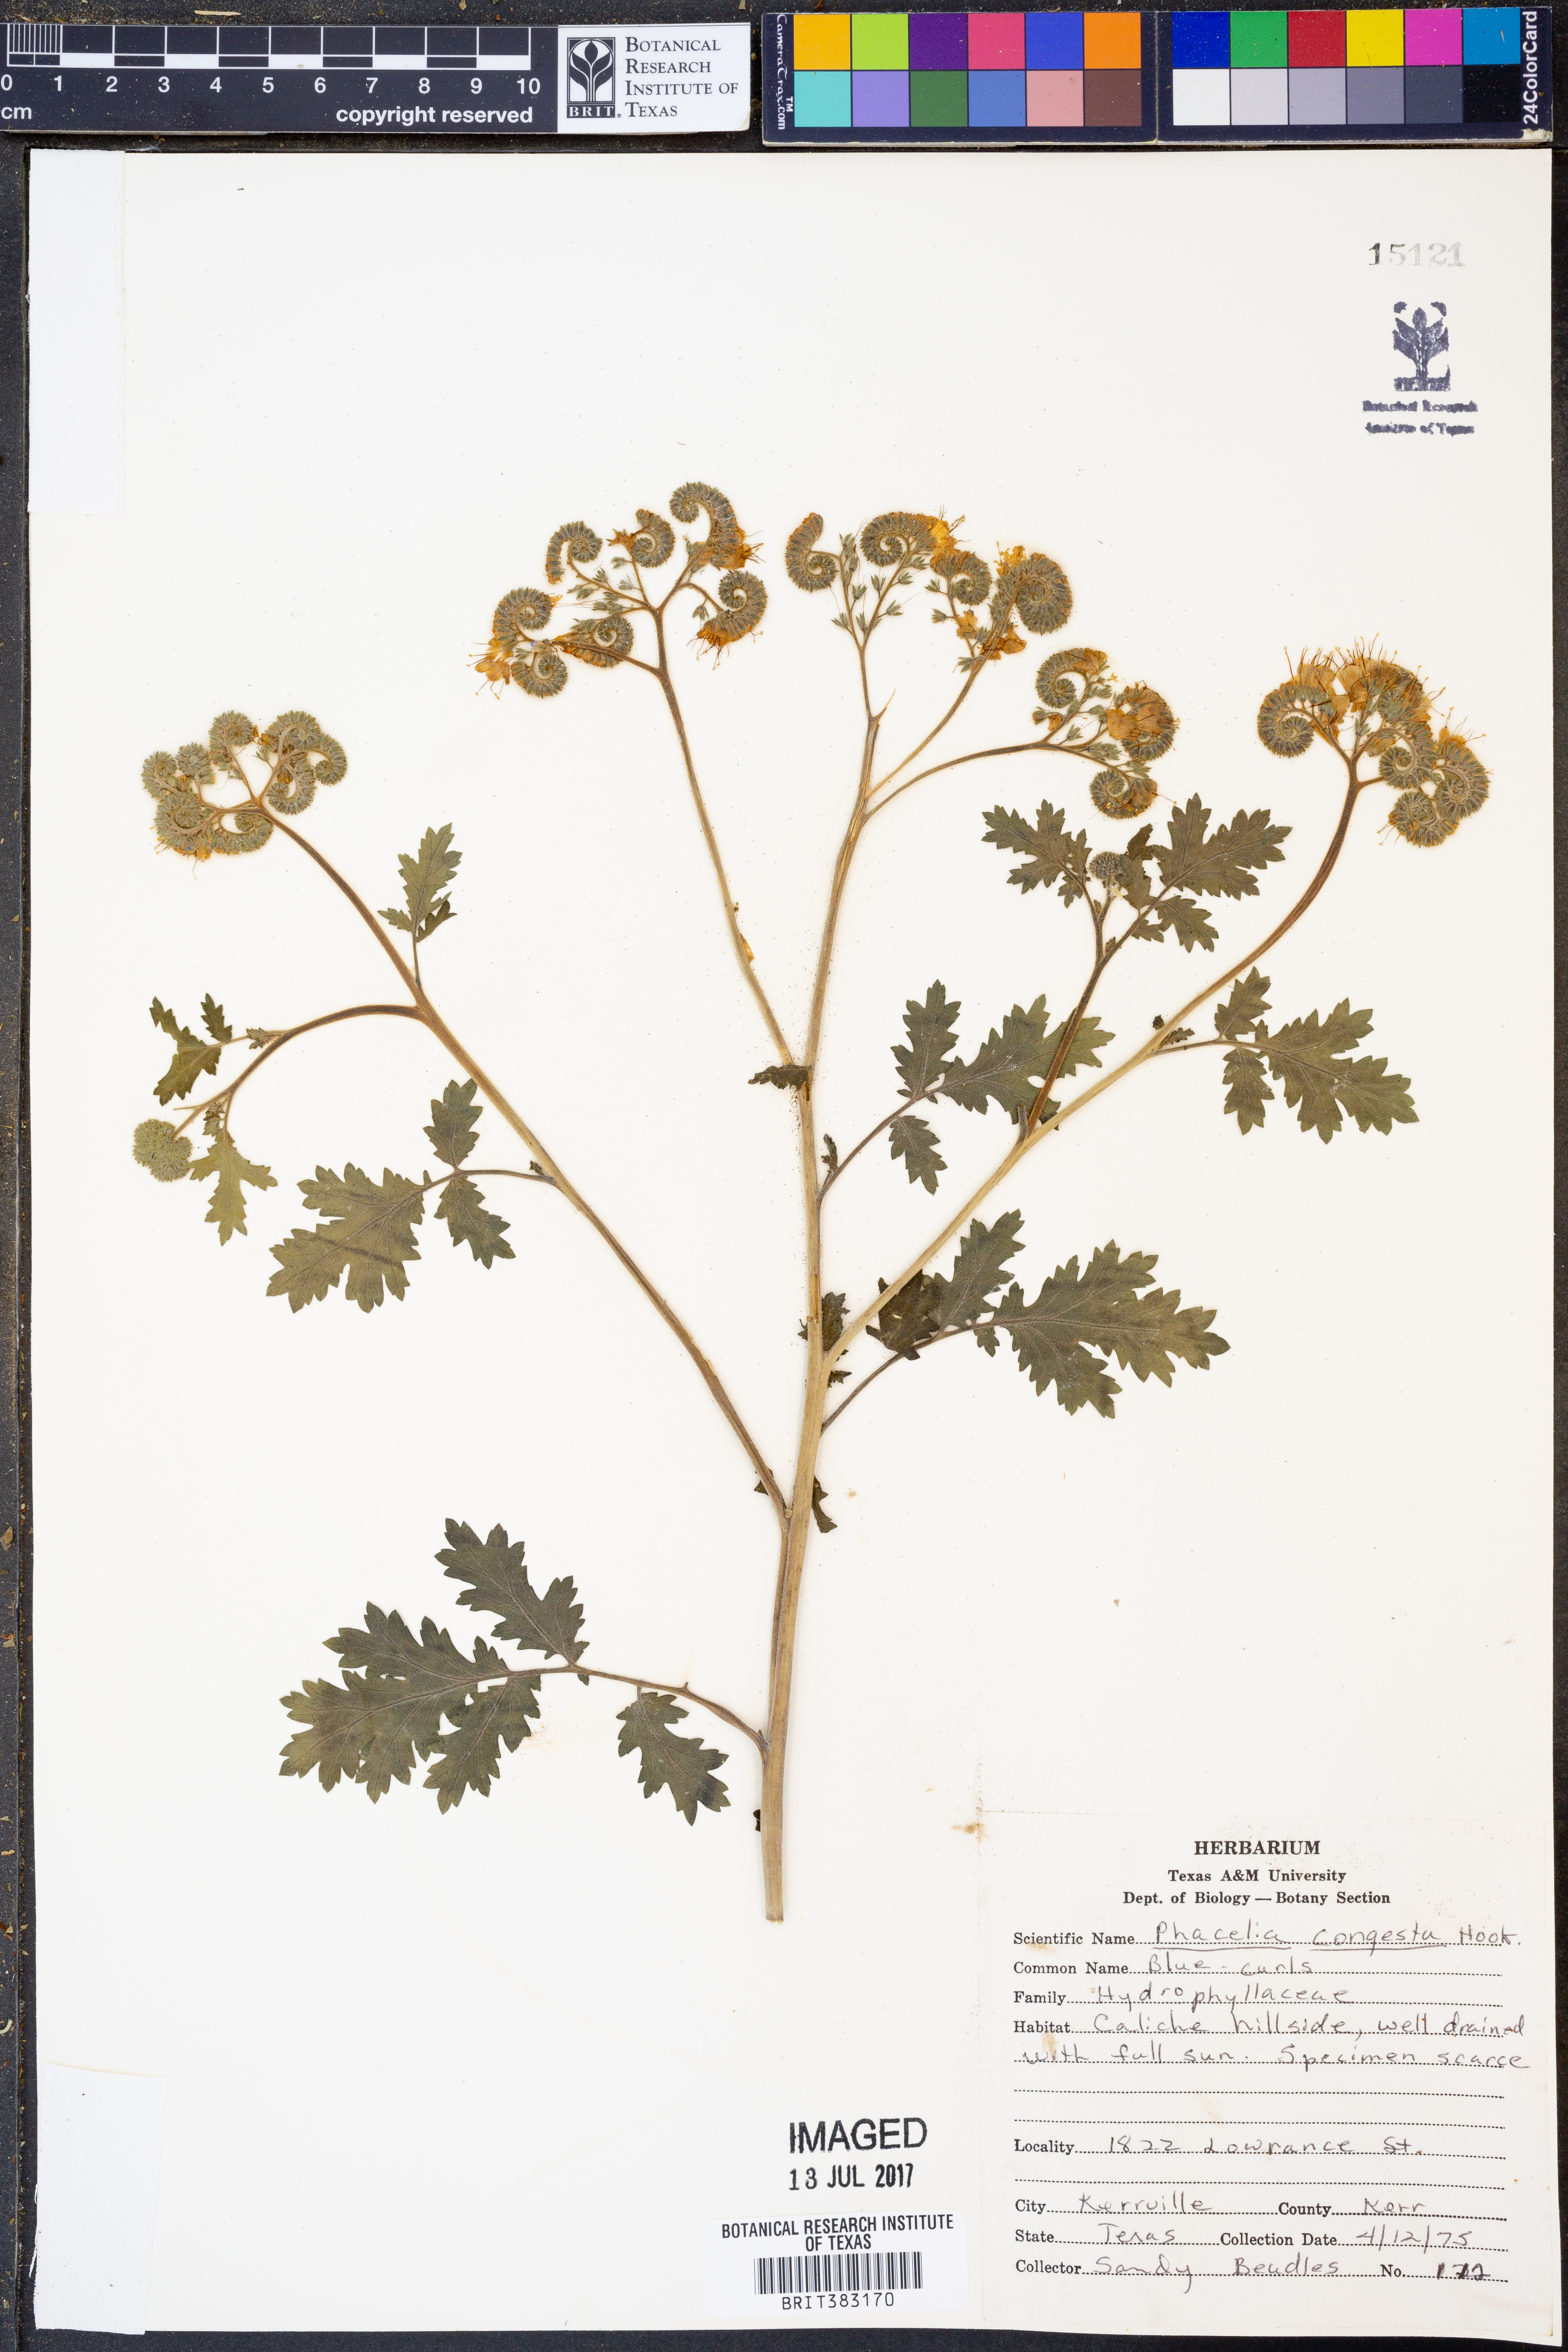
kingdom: Plantae
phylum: Tracheophyta
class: Magnoliopsida
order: Boraginales
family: Hydrophyllaceae
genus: Phacelia
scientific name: Phacelia congesta
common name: Blue curls
